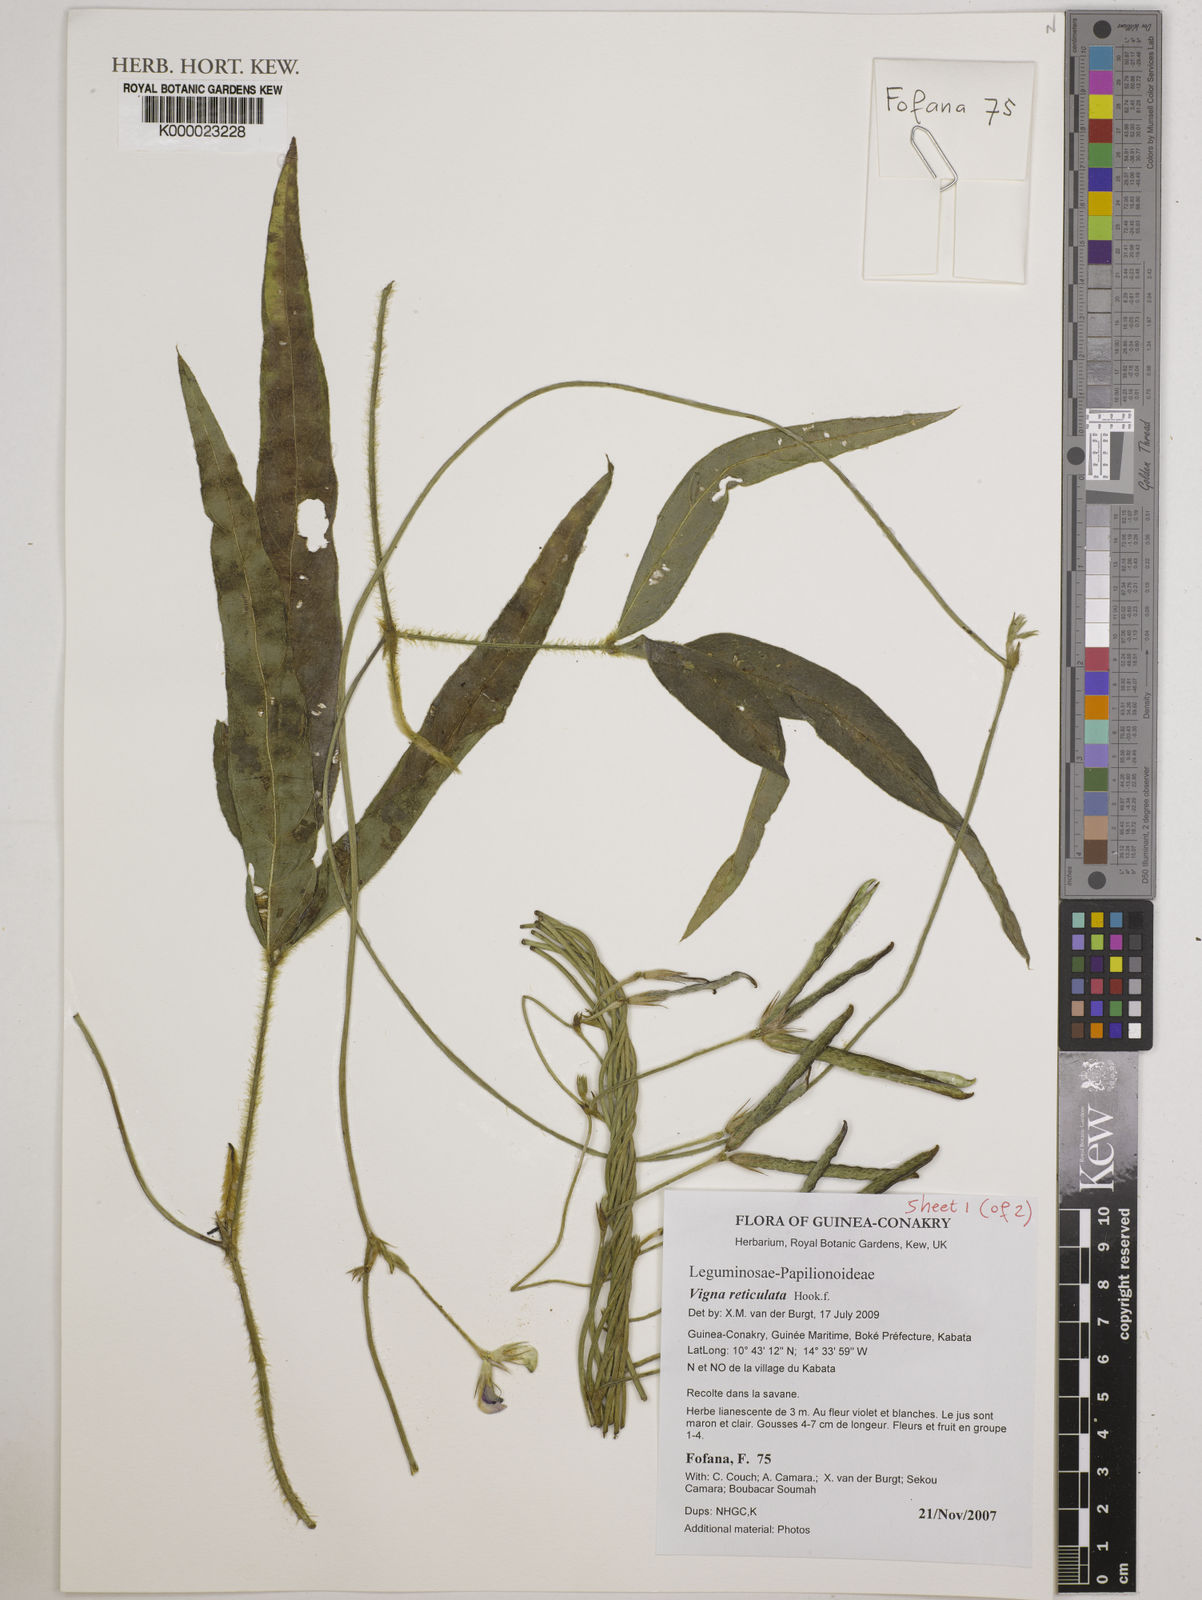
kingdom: Plantae
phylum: Tracheophyta
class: Magnoliopsida
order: Fabales
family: Fabaceae
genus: Vigna
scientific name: Vigna reticulata
